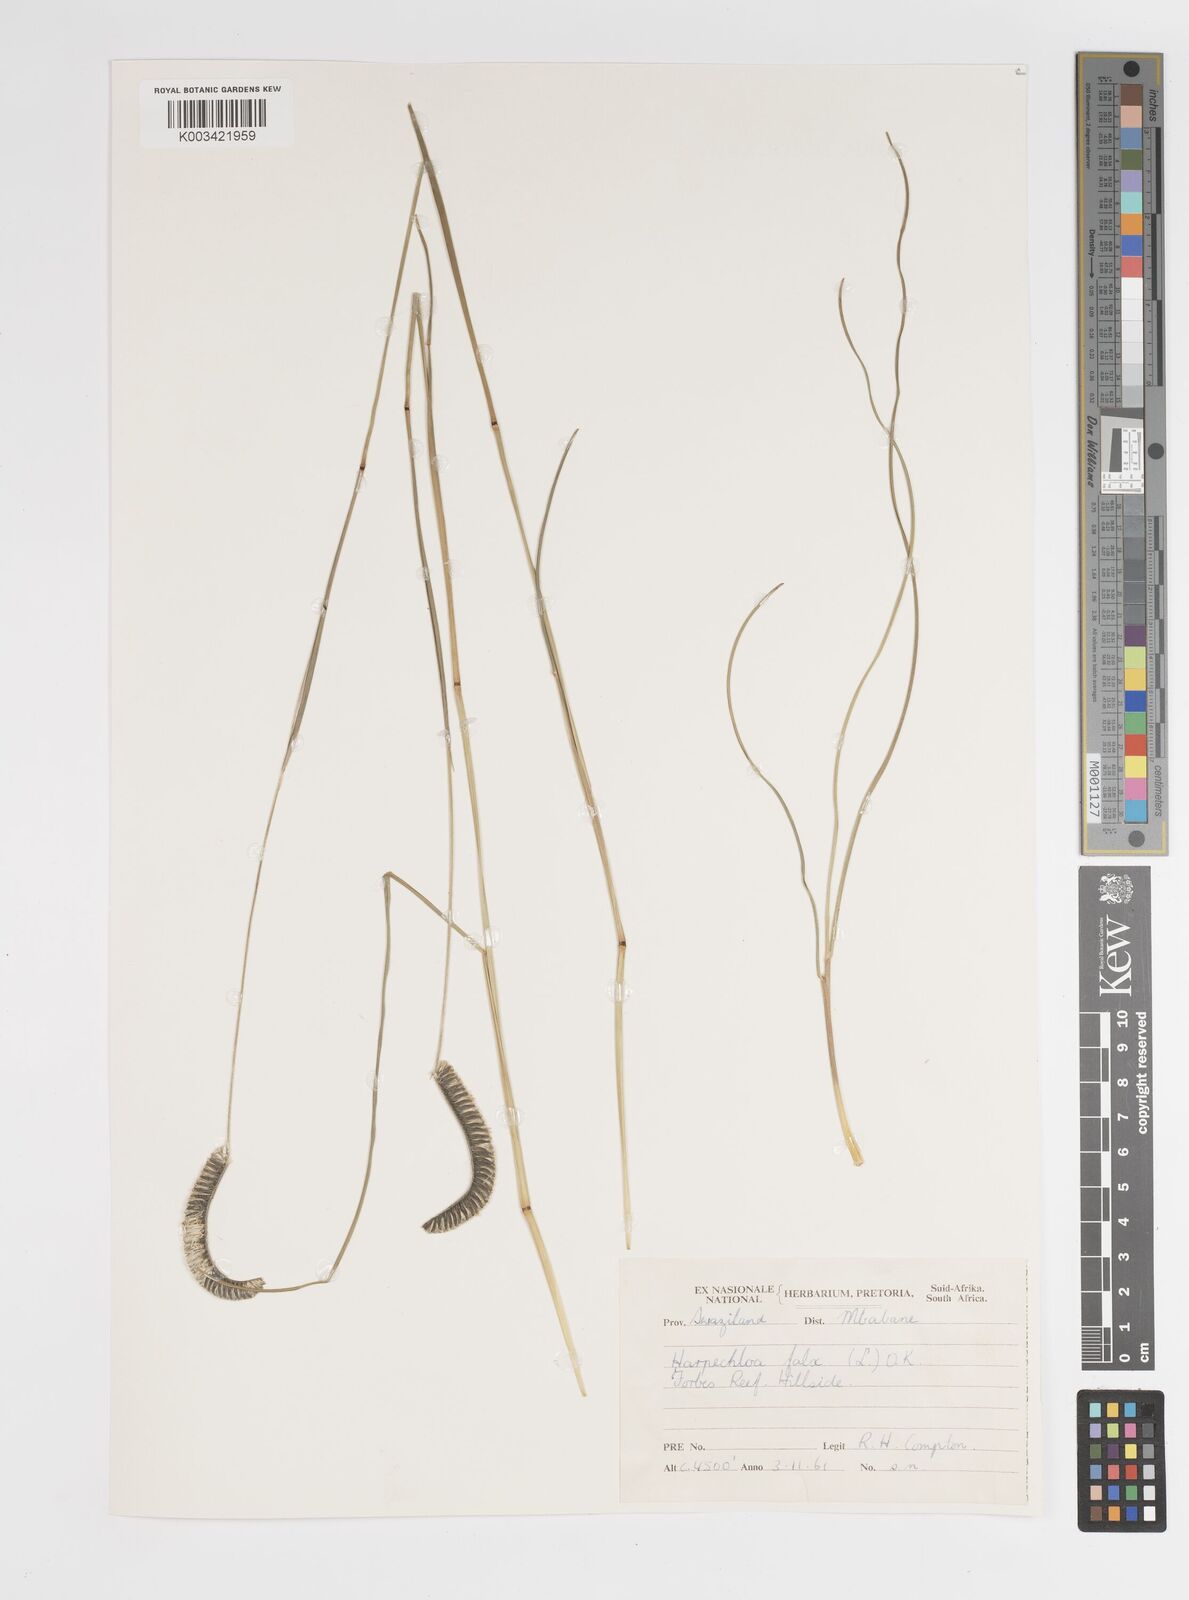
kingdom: Plantae
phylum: Tracheophyta
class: Liliopsida
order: Poales
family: Poaceae
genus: Harpochloa
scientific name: Harpochloa falx
